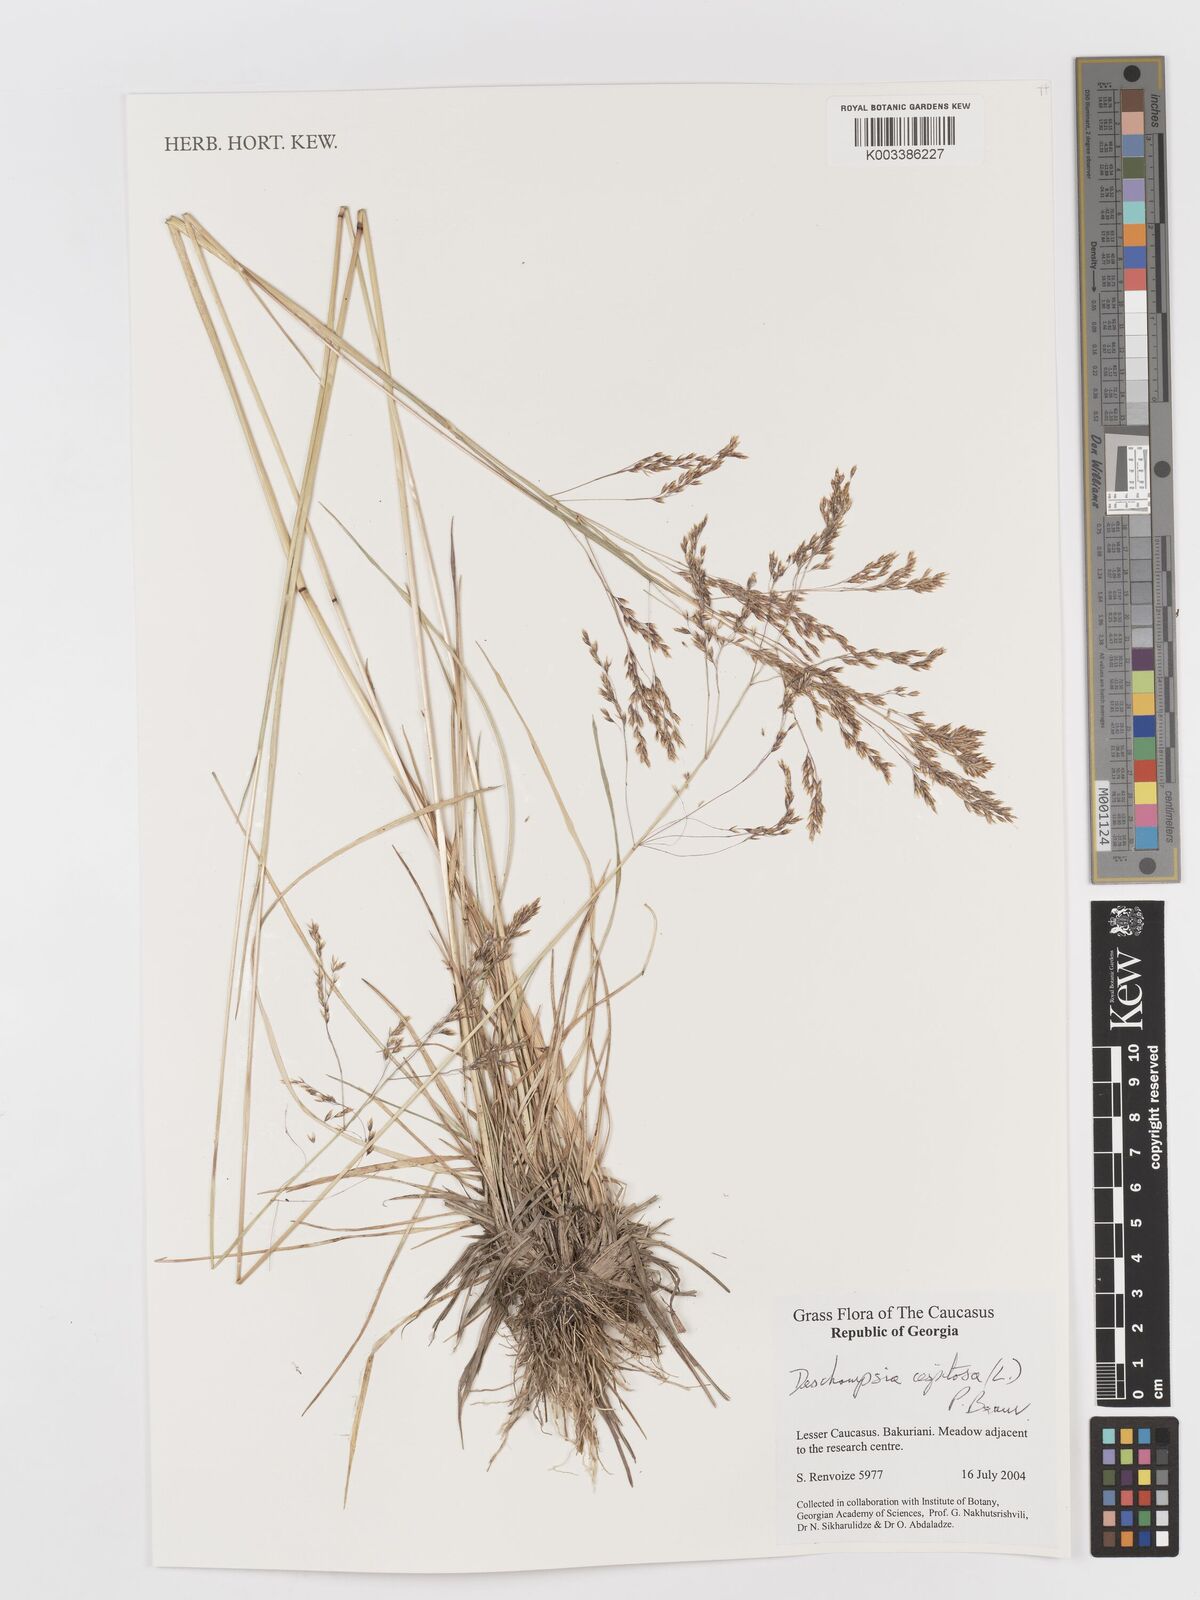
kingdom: Plantae
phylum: Tracheophyta
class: Liliopsida
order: Poales
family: Poaceae
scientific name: Poaceae
